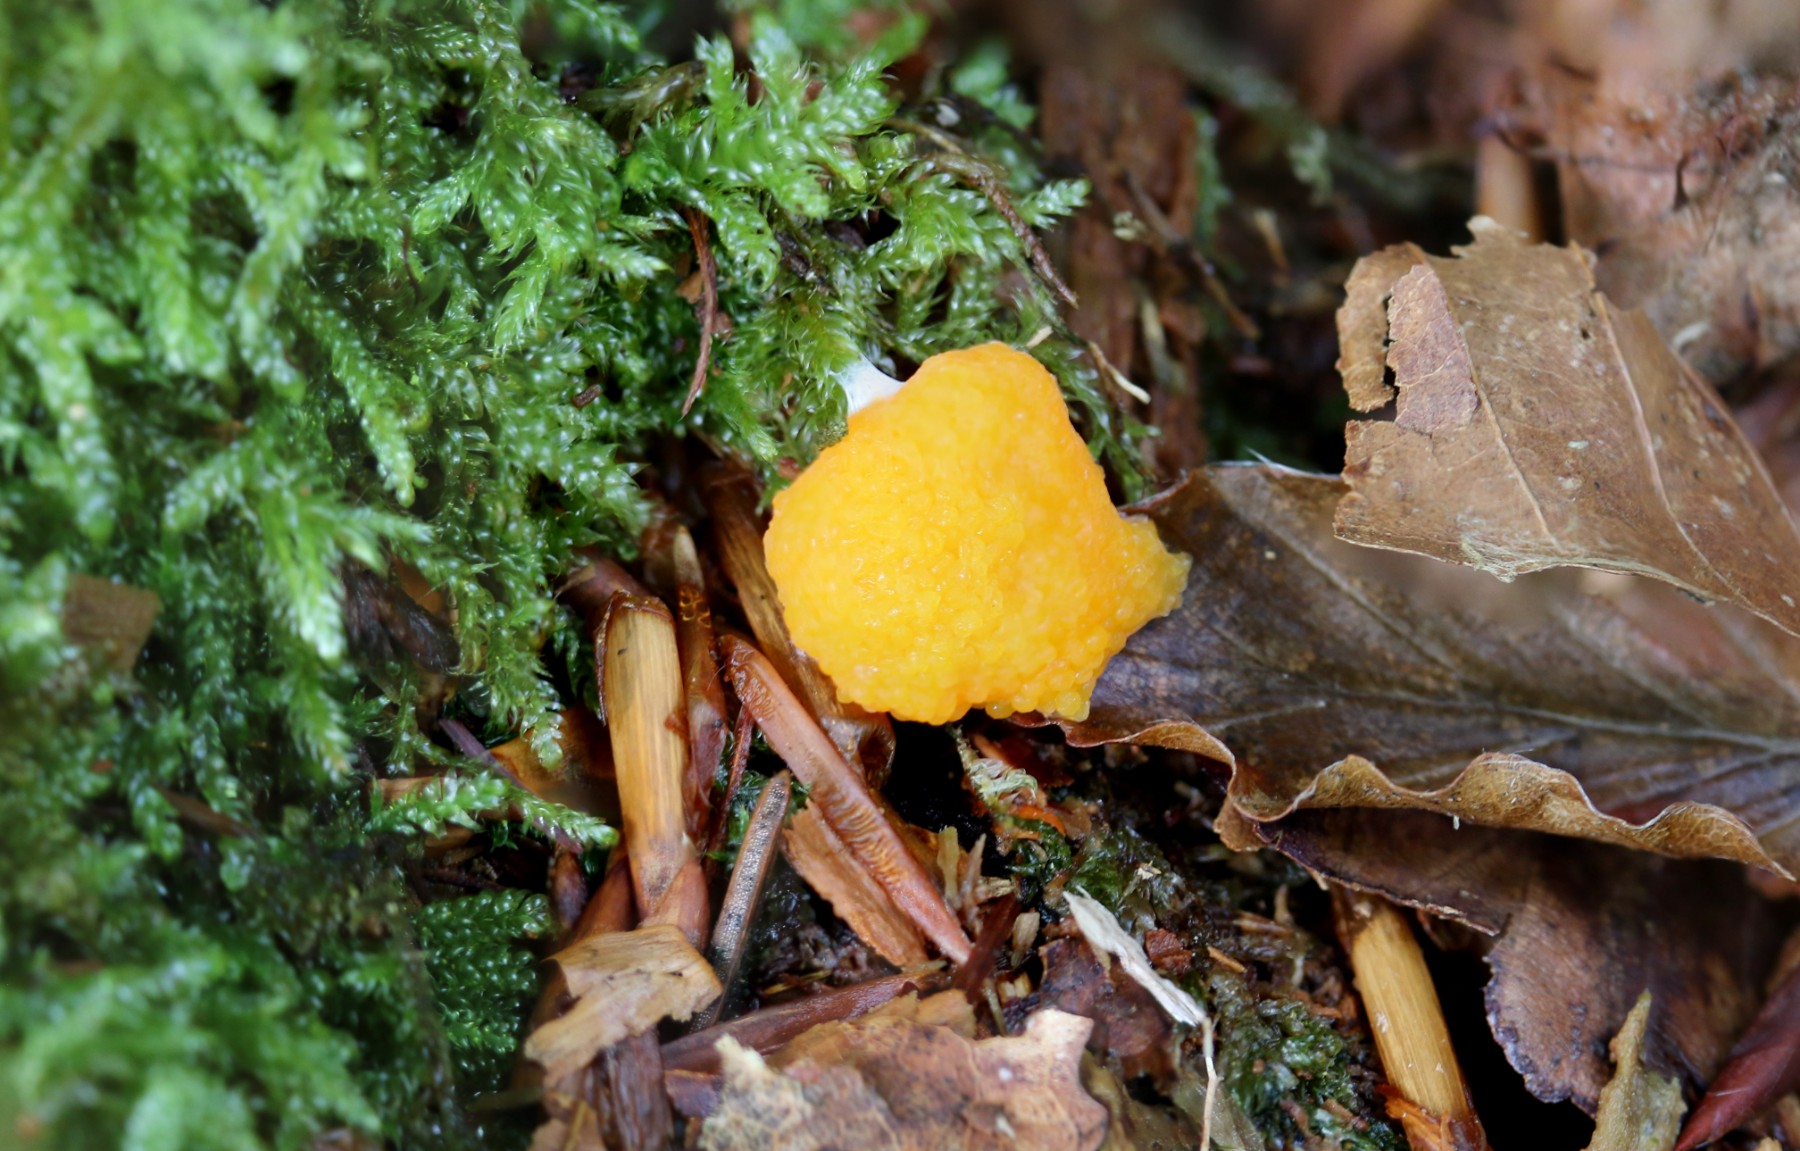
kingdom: Protozoa
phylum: Mycetozoa
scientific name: Mycetozoa
